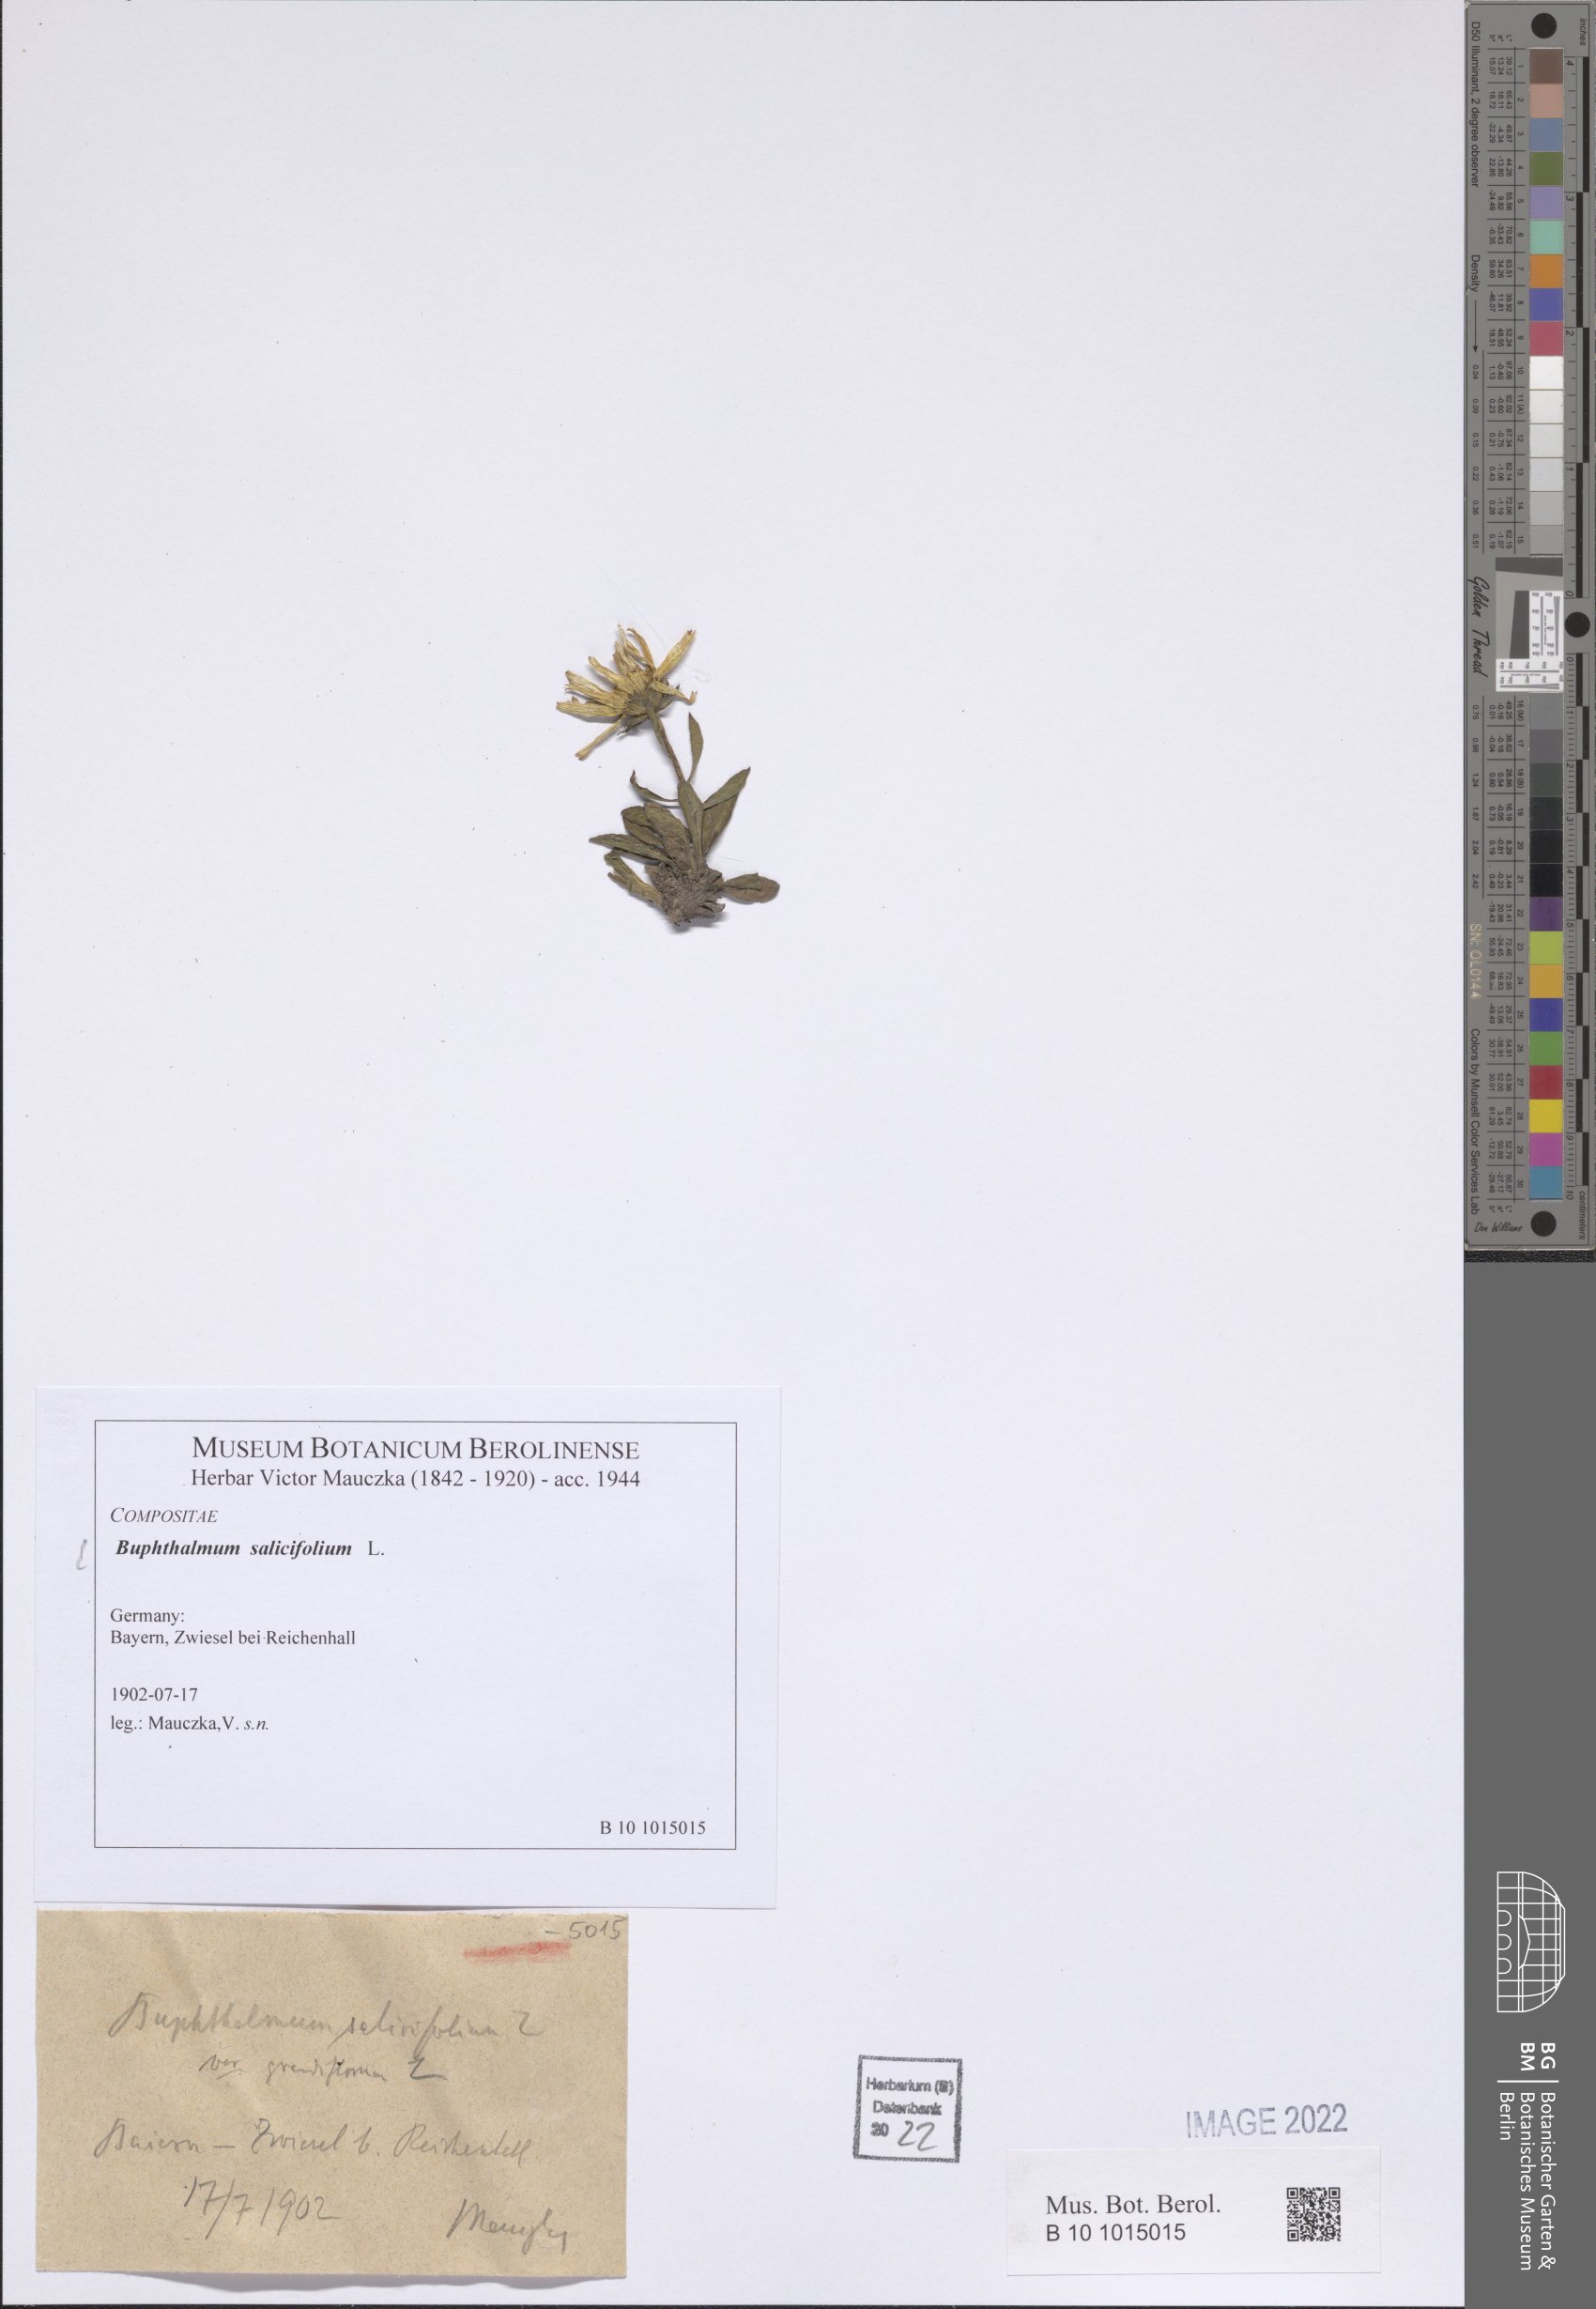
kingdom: Plantae
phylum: Tracheophyta
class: Magnoliopsida
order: Asterales
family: Asteraceae
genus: Buphthalmum
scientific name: Buphthalmum salicifolium
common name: Willow-leaved yellow-oxeye
